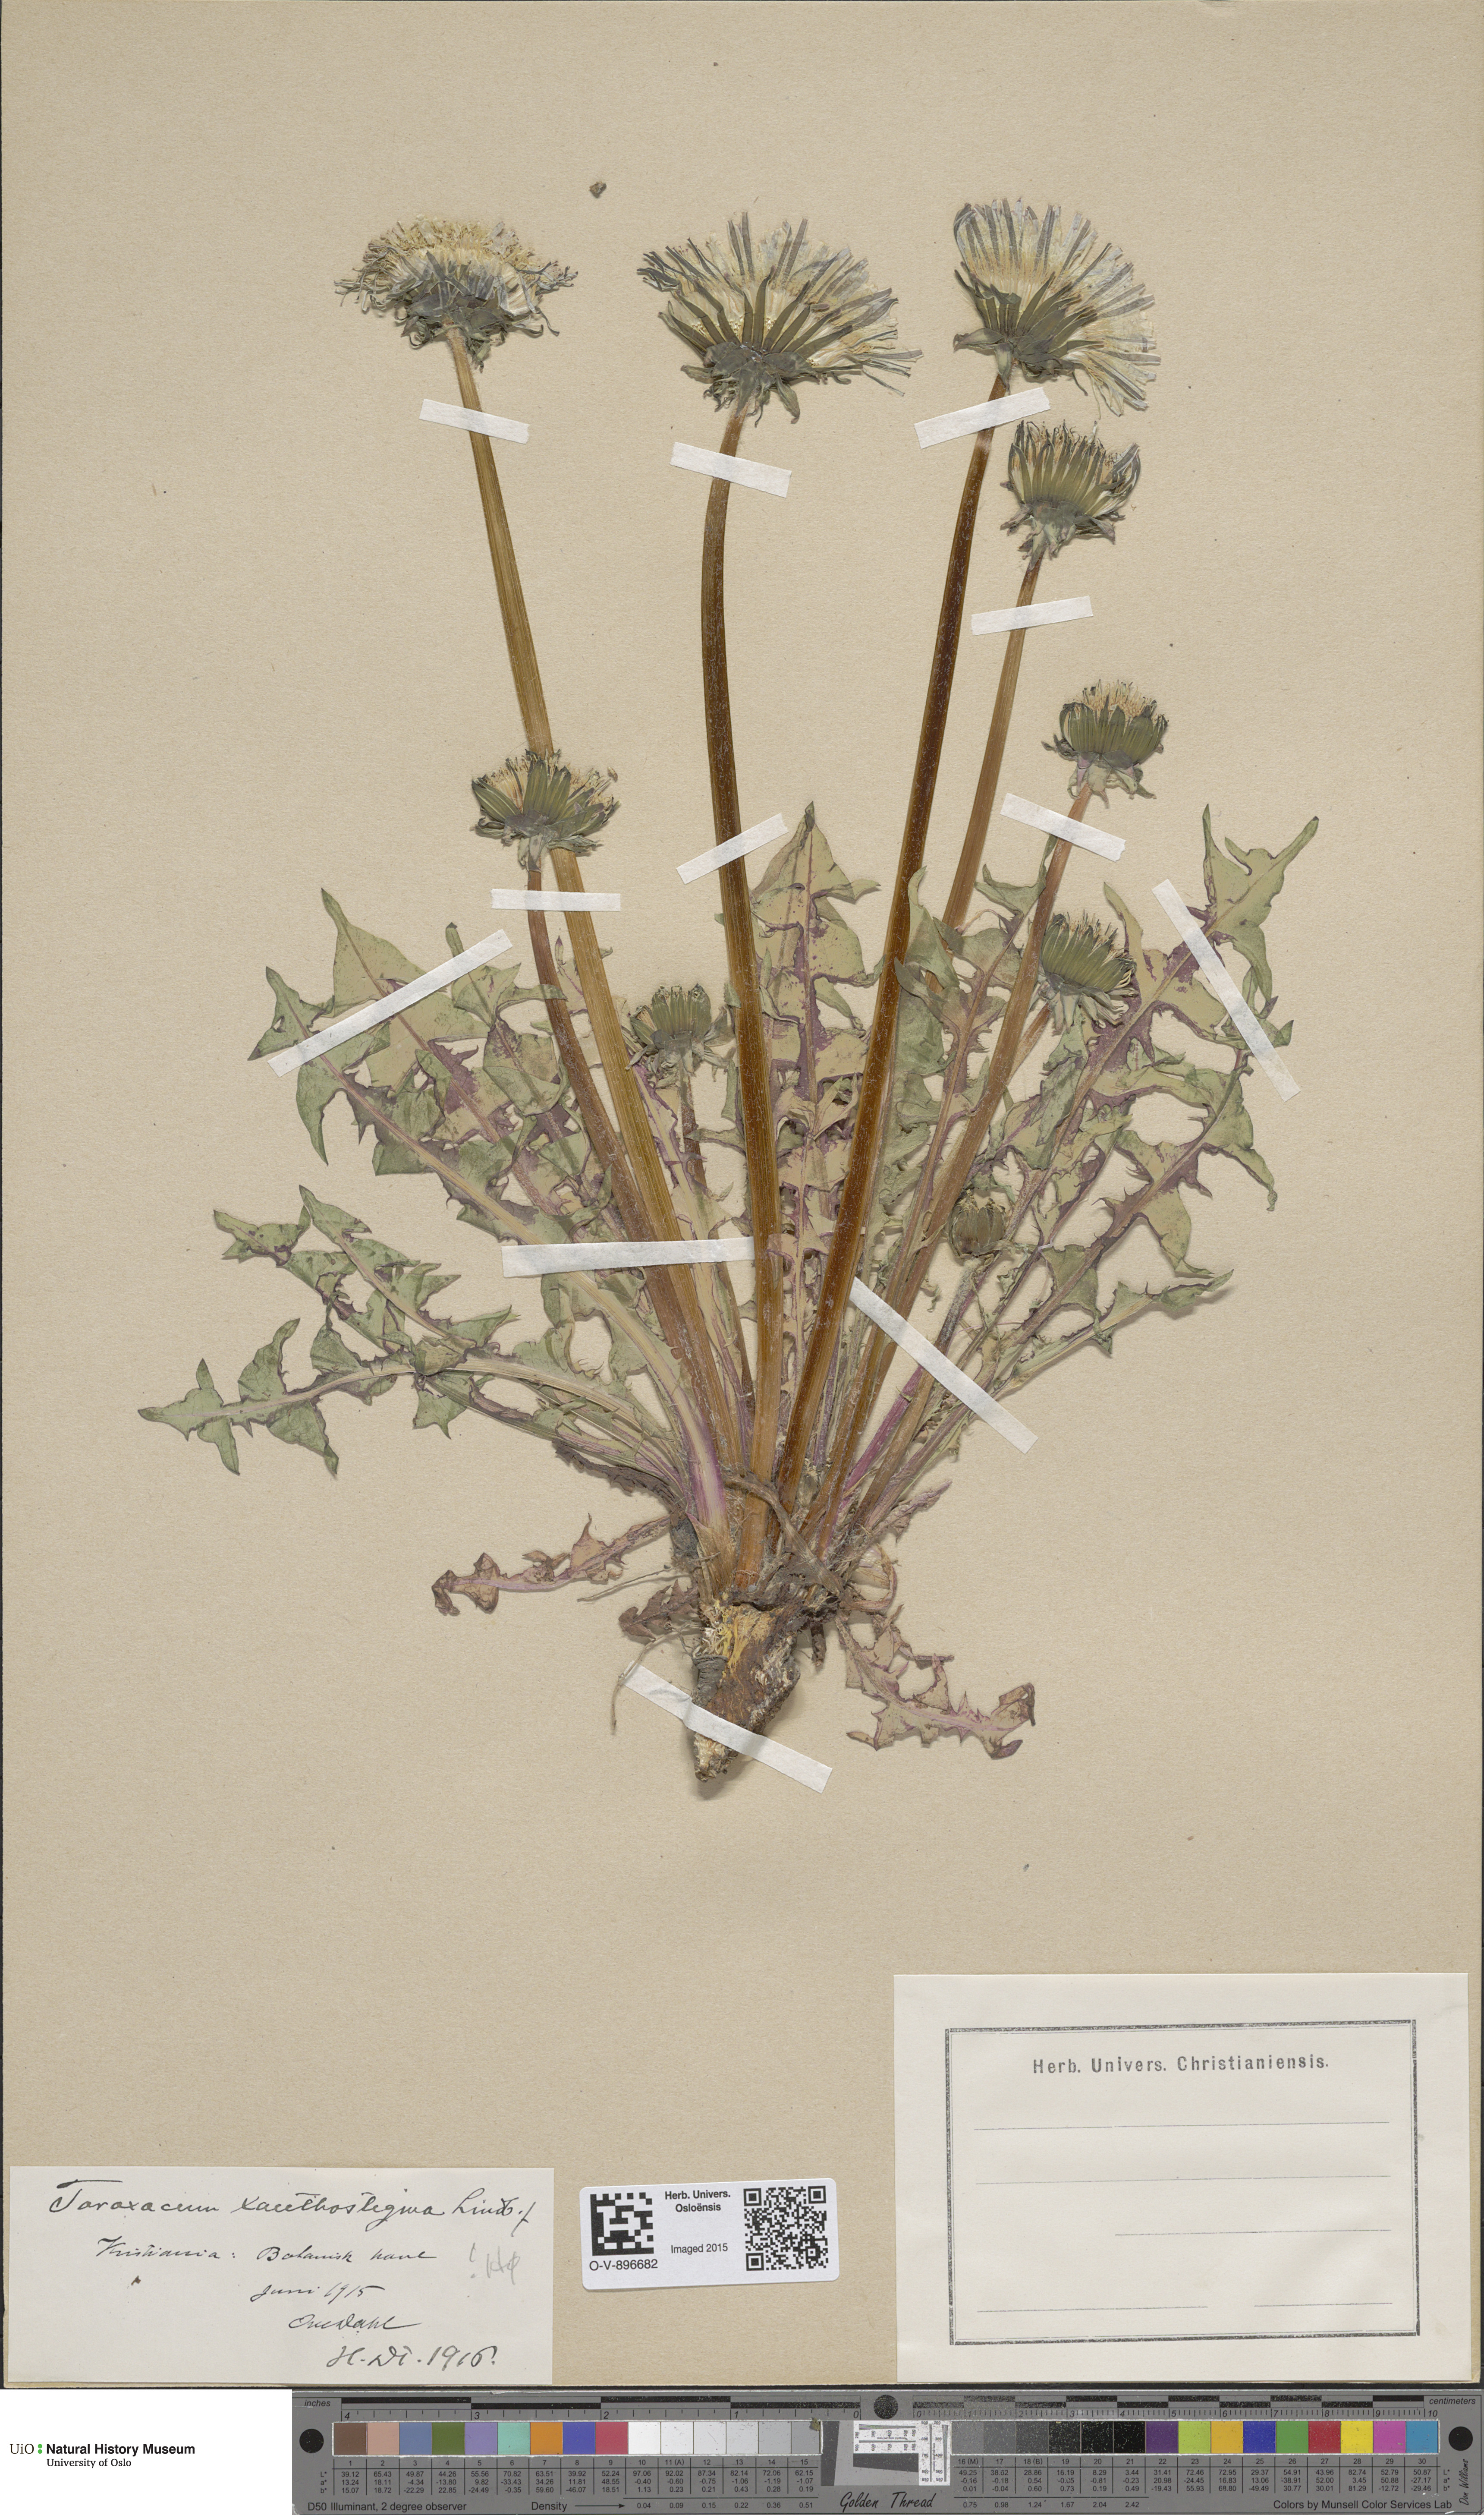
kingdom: Plantae
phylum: Tracheophyta
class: Magnoliopsida
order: Asterales
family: Asteraceae
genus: Taraxacum
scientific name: Taraxacum xanthostigma
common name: Ochre-styled dandelion
